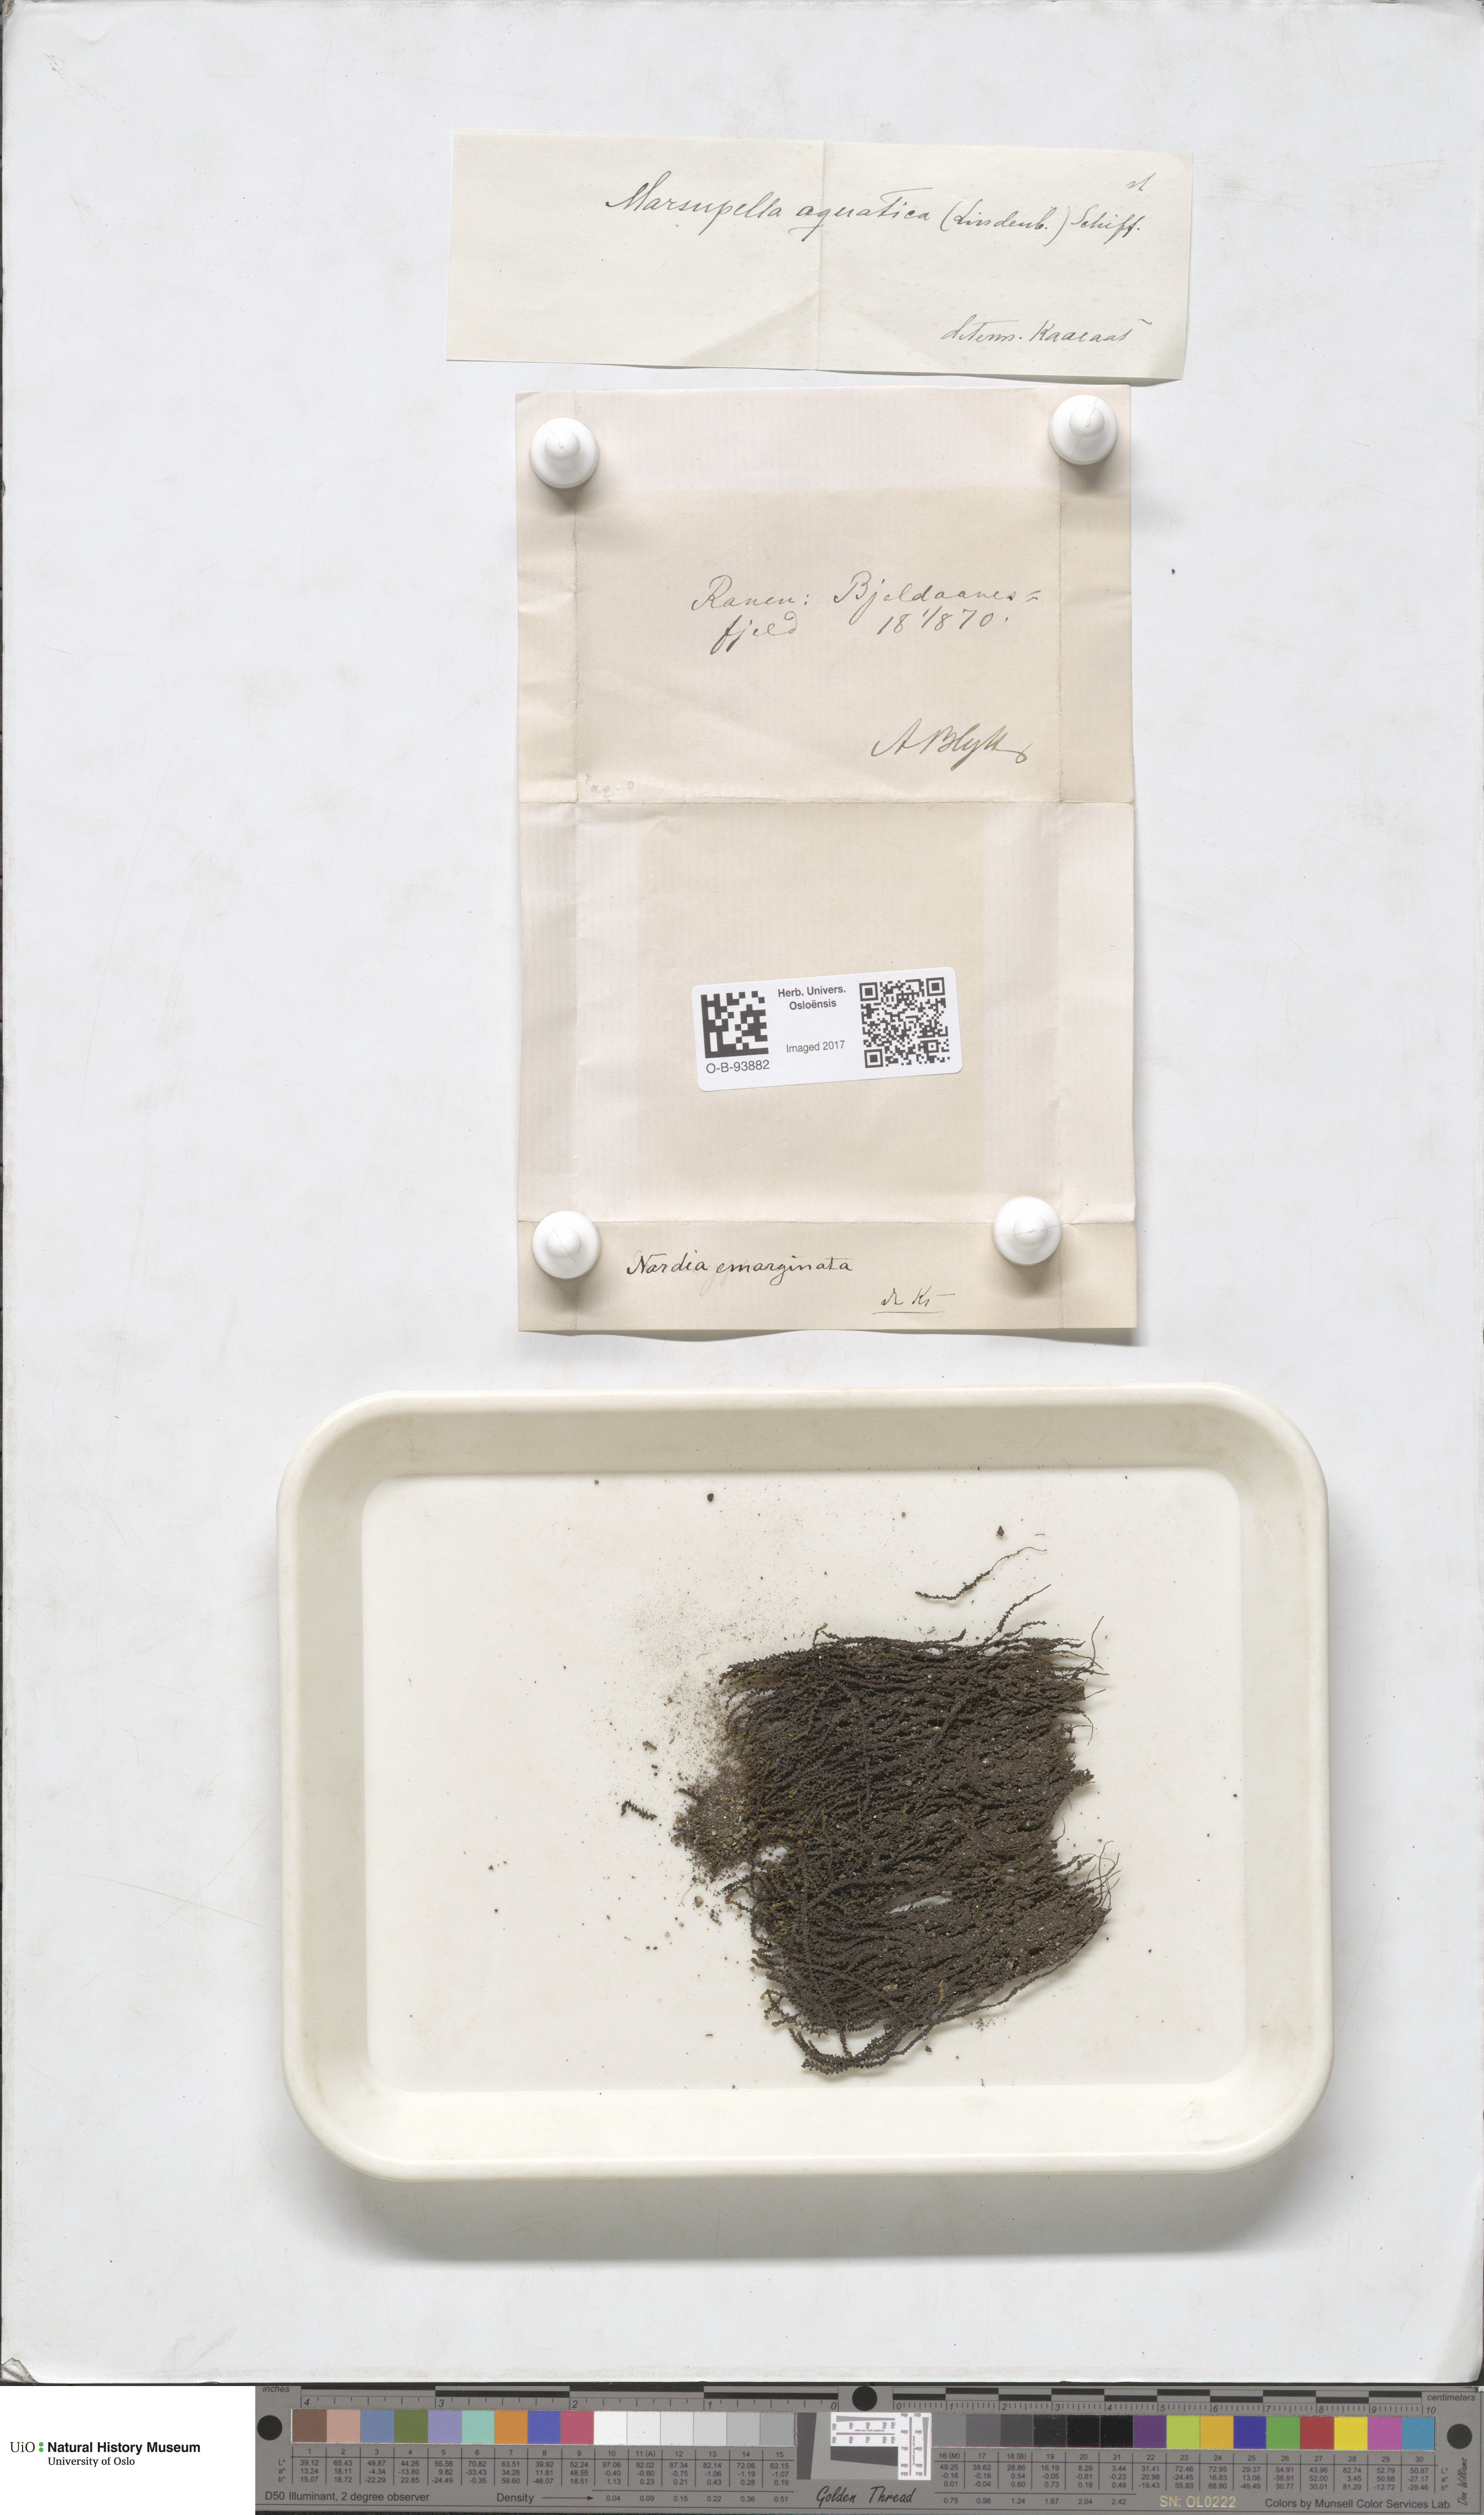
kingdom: Plantae
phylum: Marchantiophyta
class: Jungermanniopsida
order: Jungermanniales
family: Gymnomitriaceae
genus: Marsupella
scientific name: Marsupella emarginata
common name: Notched rustwort
